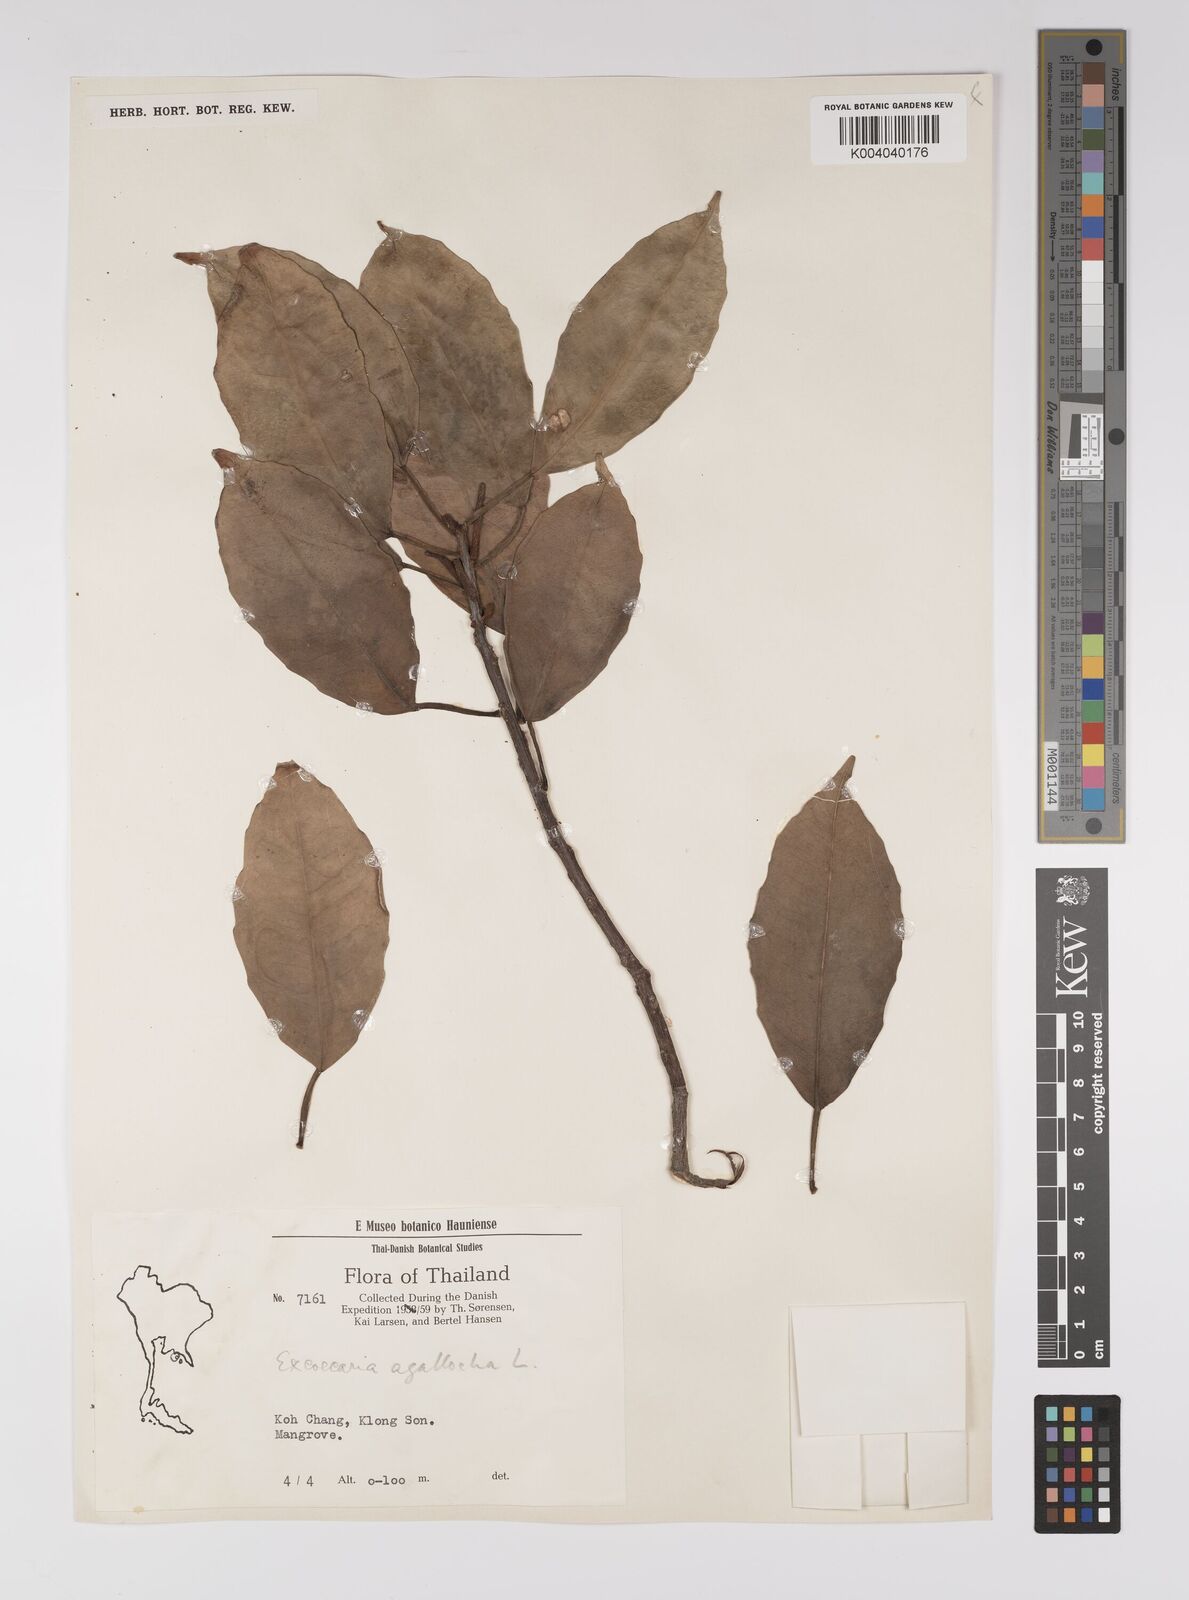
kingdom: Plantae
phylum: Tracheophyta
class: Magnoliopsida
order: Malpighiales
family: Euphorbiaceae
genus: Excoecaria
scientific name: Excoecaria agallocha
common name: River poisontree
